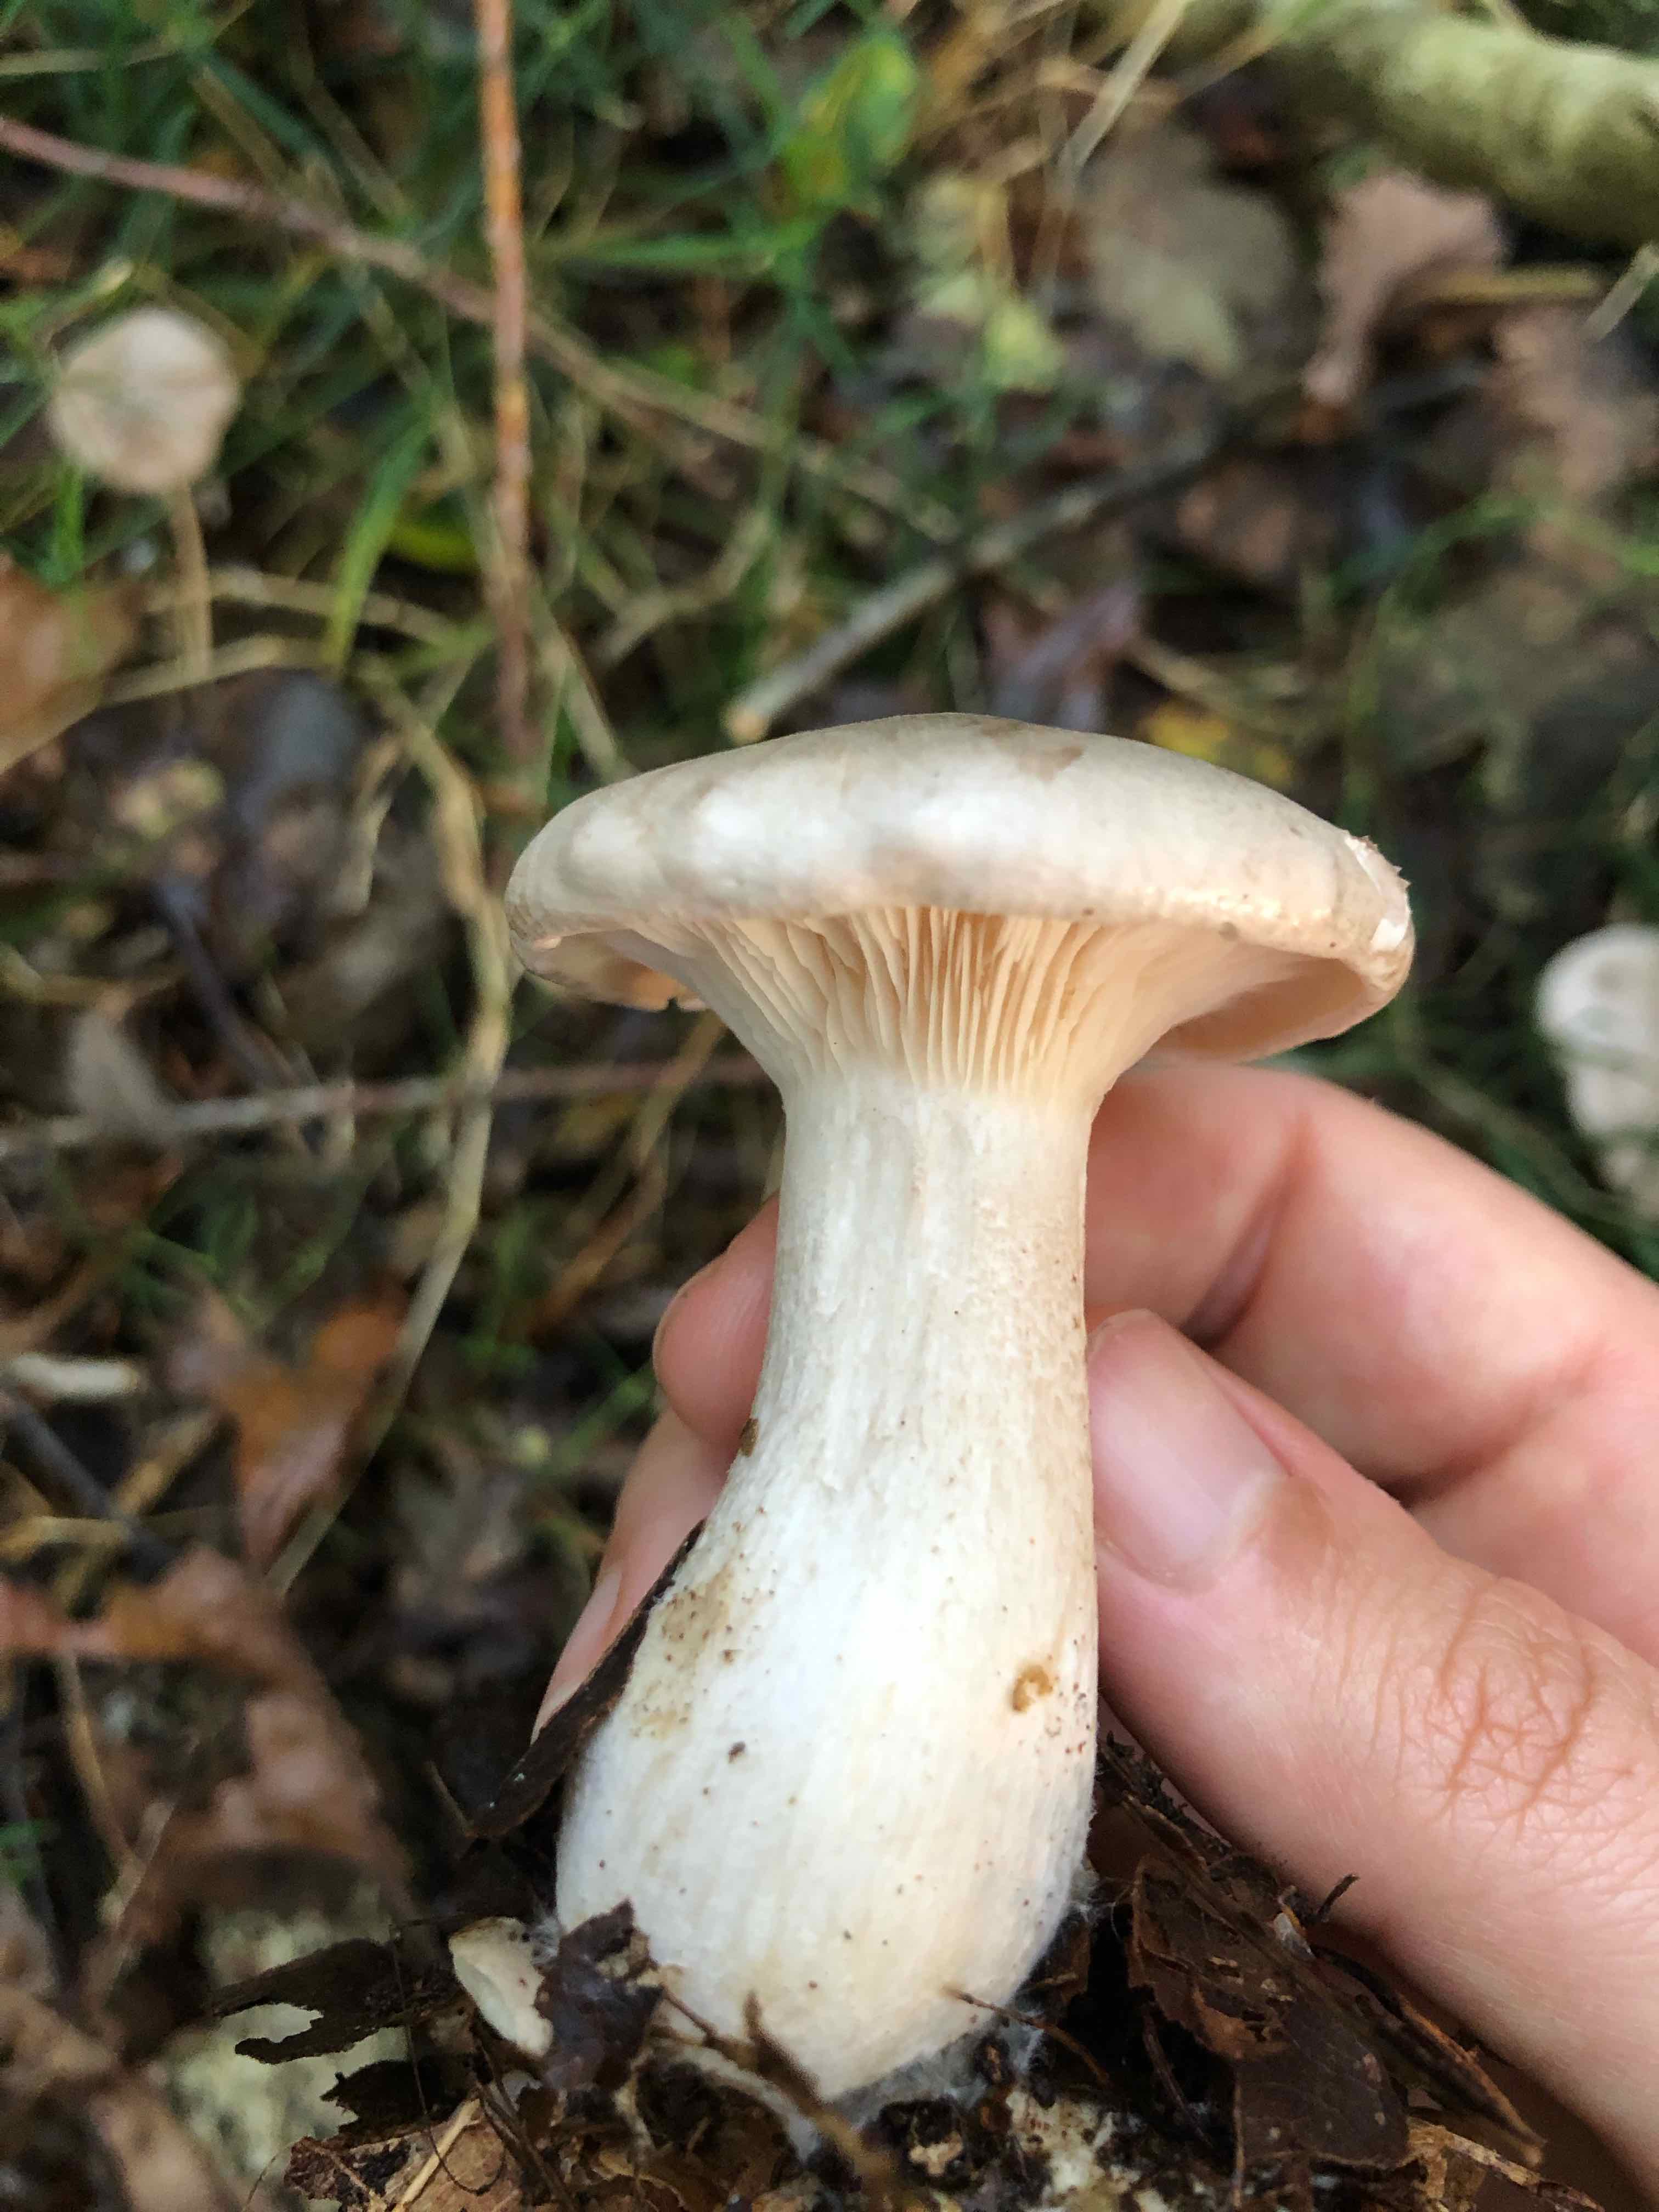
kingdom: Fungi
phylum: Basidiomycota
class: Agaricomycetes
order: Agaricales
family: Tricholomataceae
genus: Clitocybe
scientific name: Clitocybe nebularis
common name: tåge-tragthat
